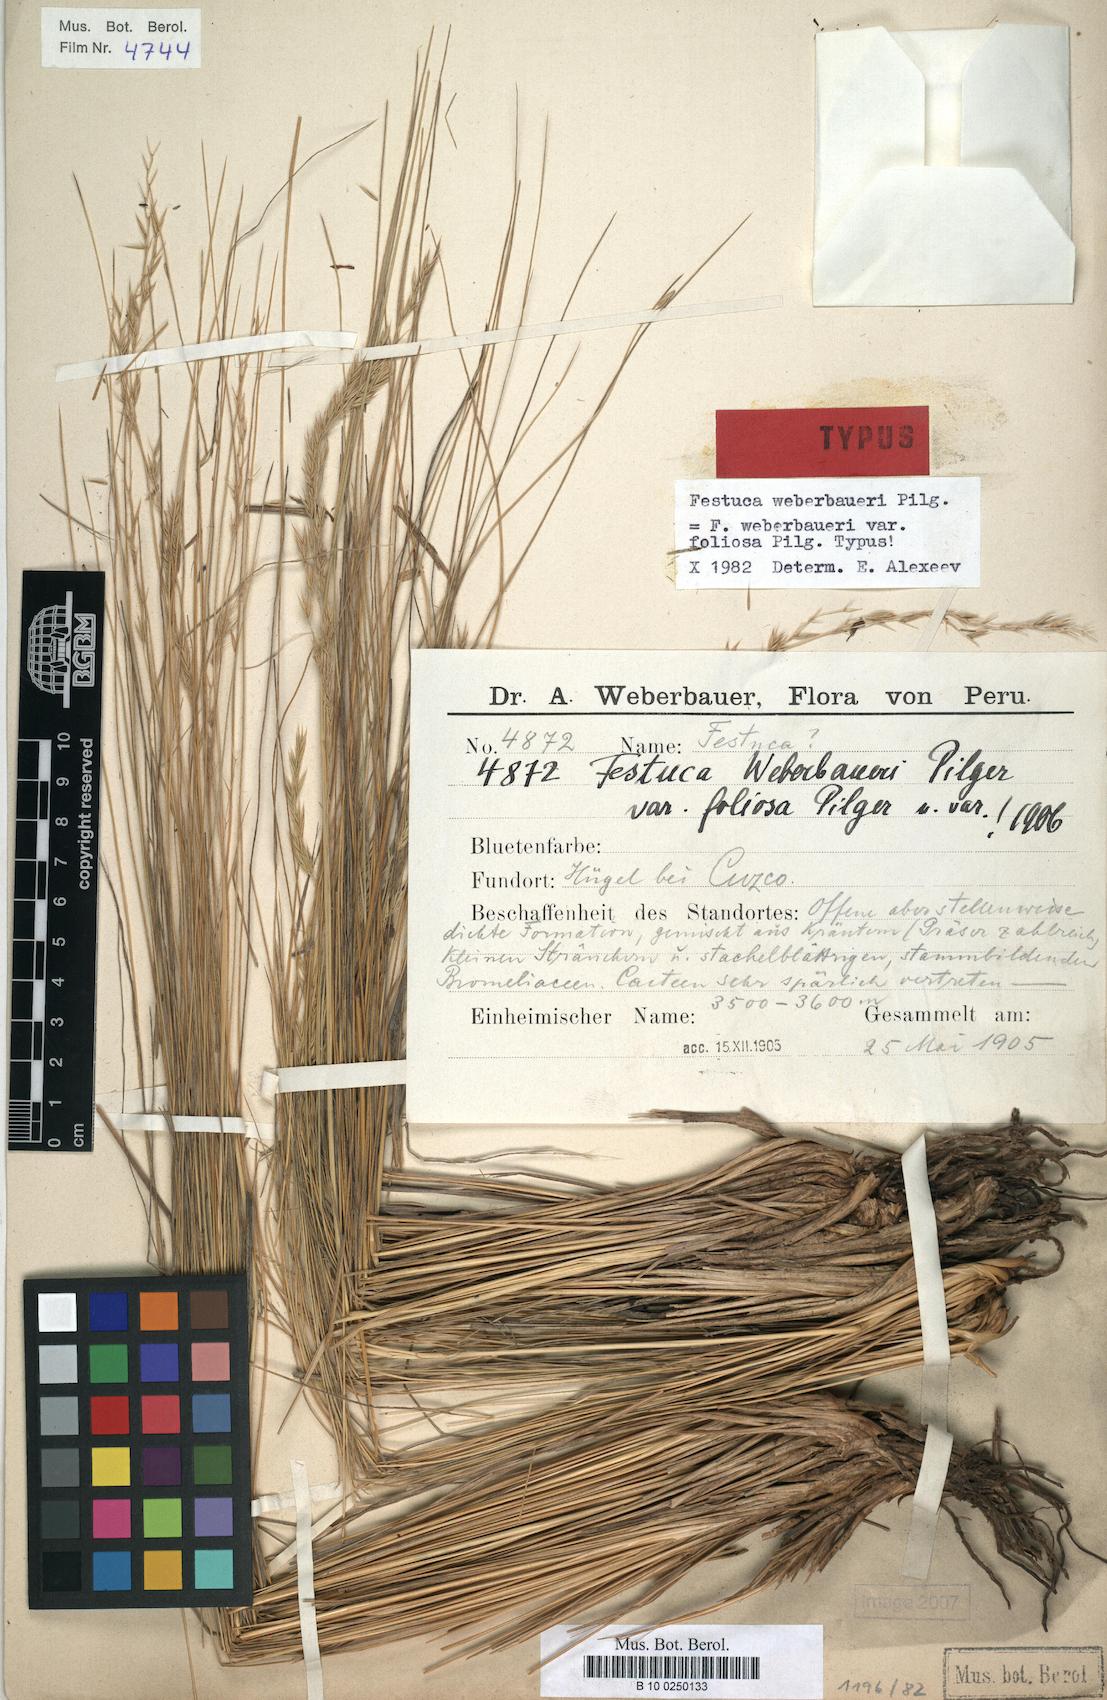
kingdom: Plantae
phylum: Tracheophyta
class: Liliopsida
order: Poales
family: Poaceae
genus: Festuca
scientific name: Festuca fiebrigii
